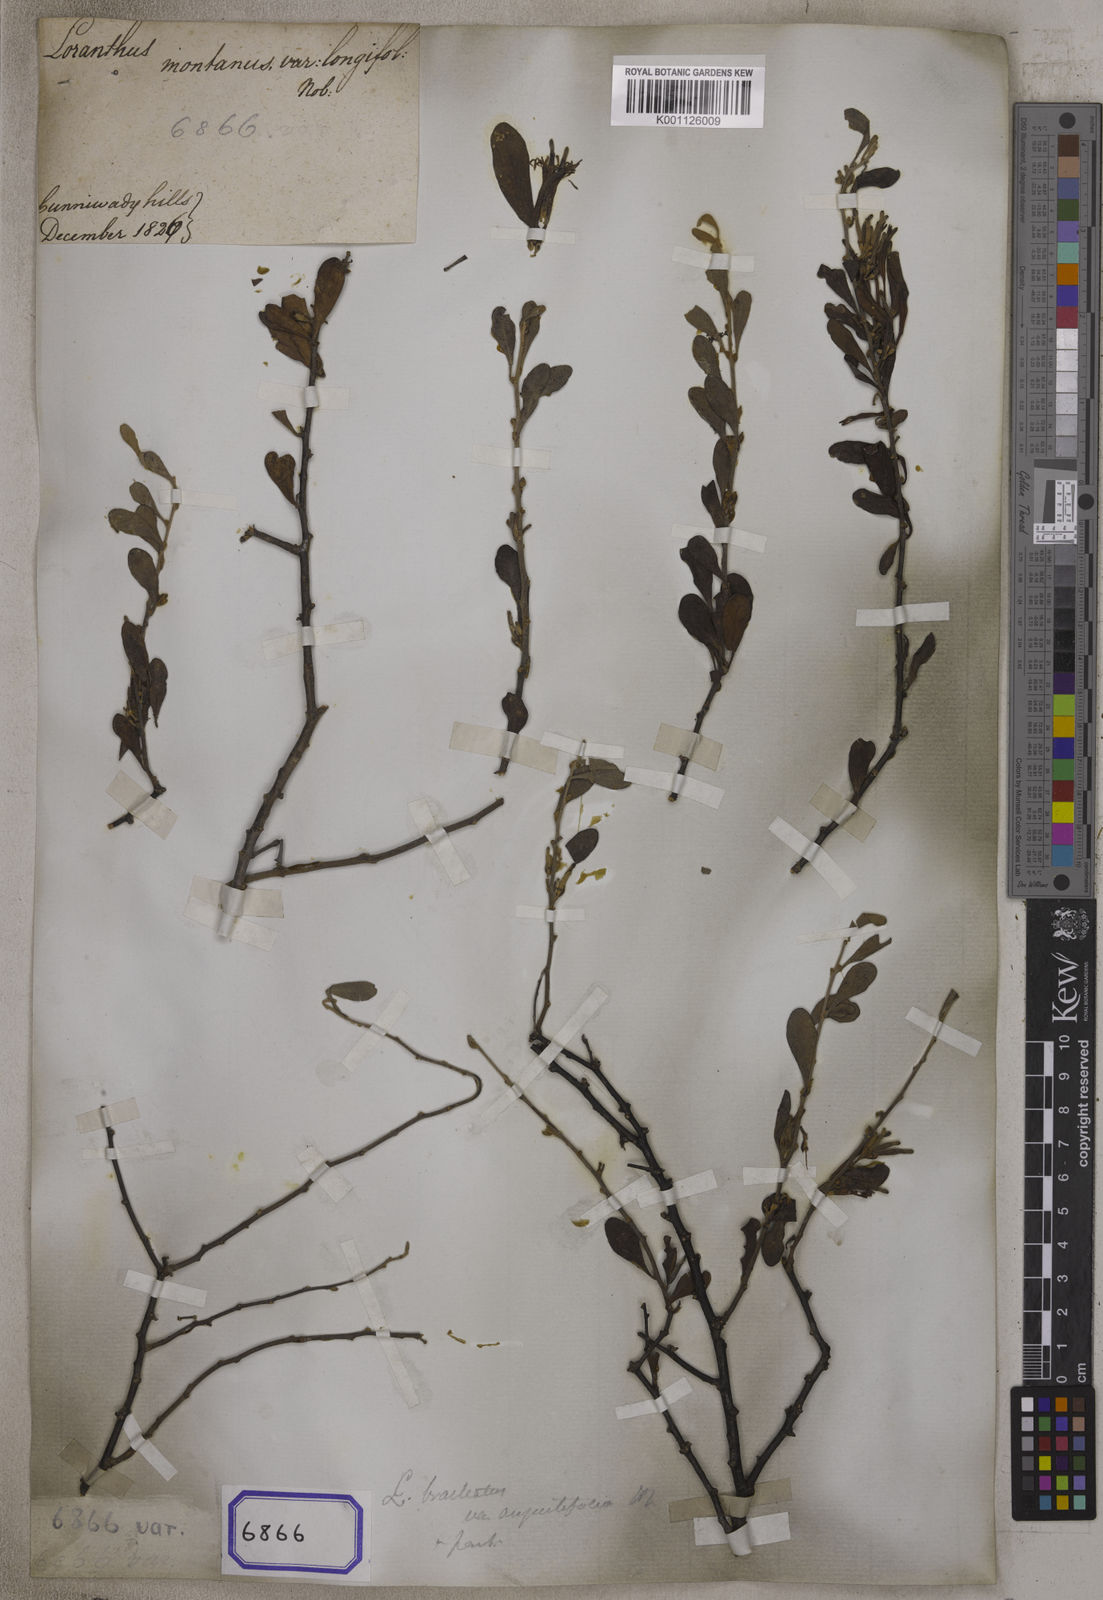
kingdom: Plantae
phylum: Tracheophyta
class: Magnoliopsida
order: Santalales
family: Loranthaceae
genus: Taxillus
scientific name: Taxillus cuneatus
